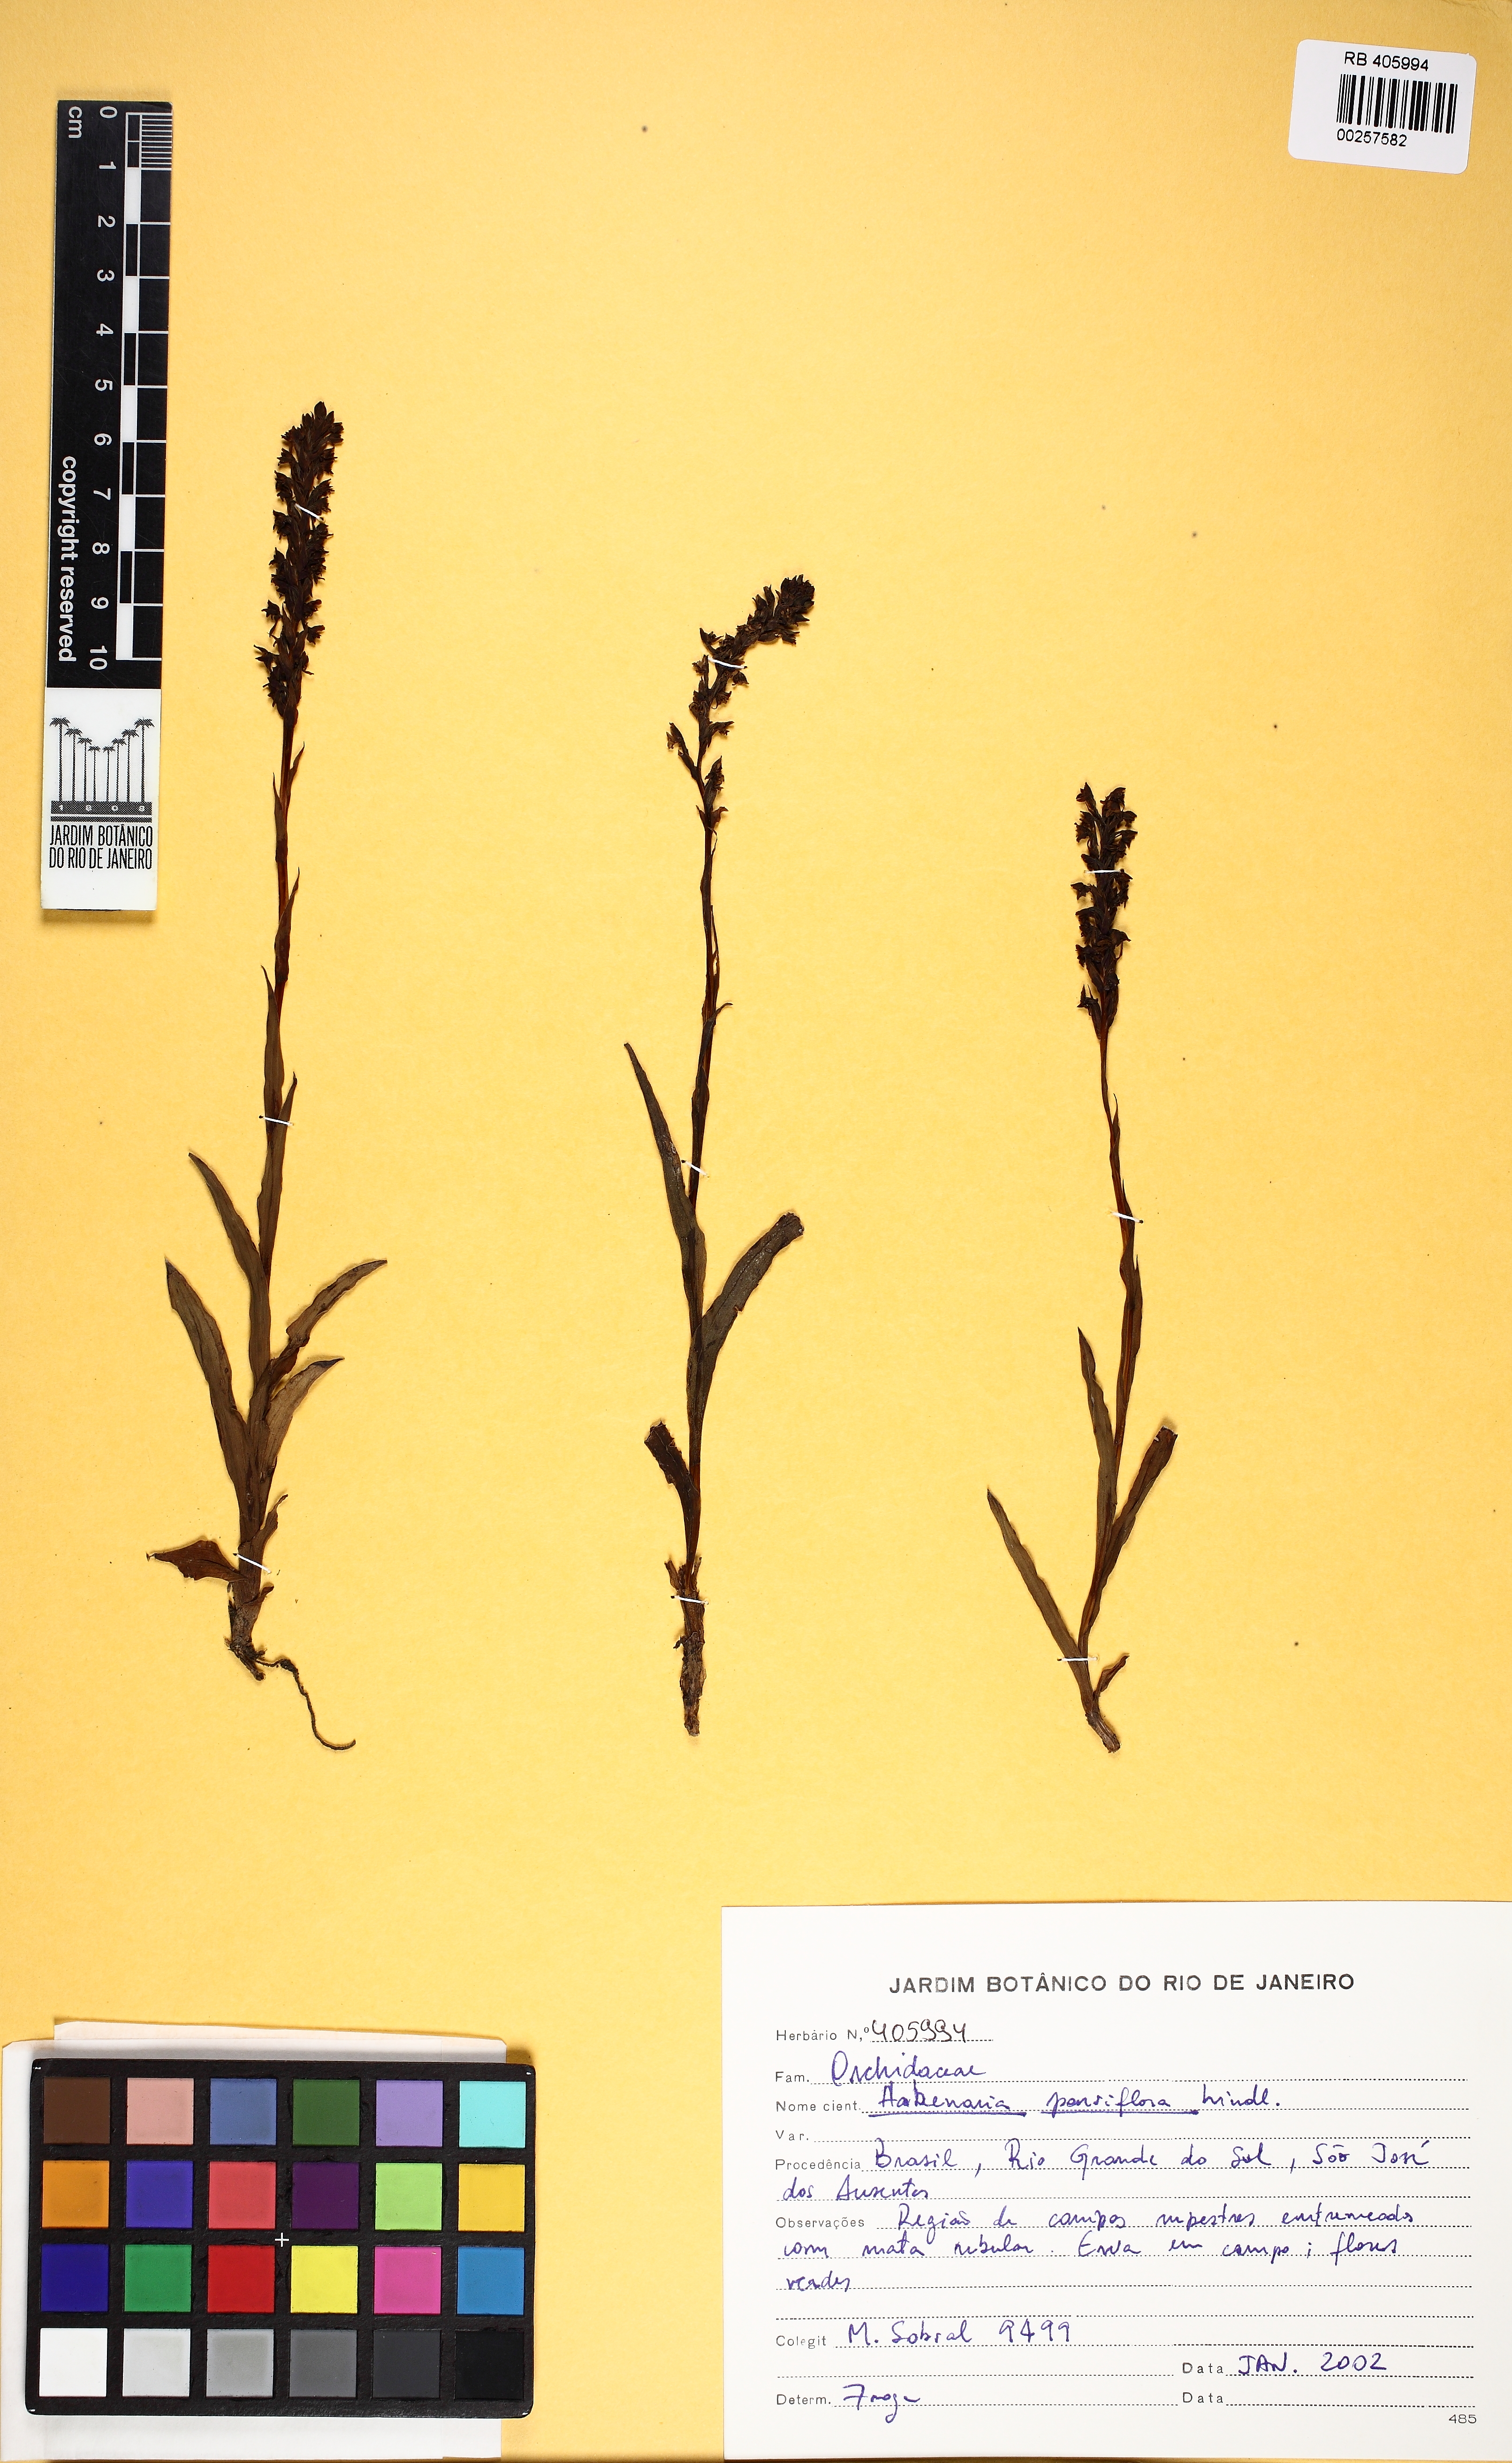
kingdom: Plantae
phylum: Tracheophyta
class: Liliopsida
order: Asparagales
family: Orchidaceae
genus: Habenaria
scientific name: Habenaria parviflora
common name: Small flowered habenaria
